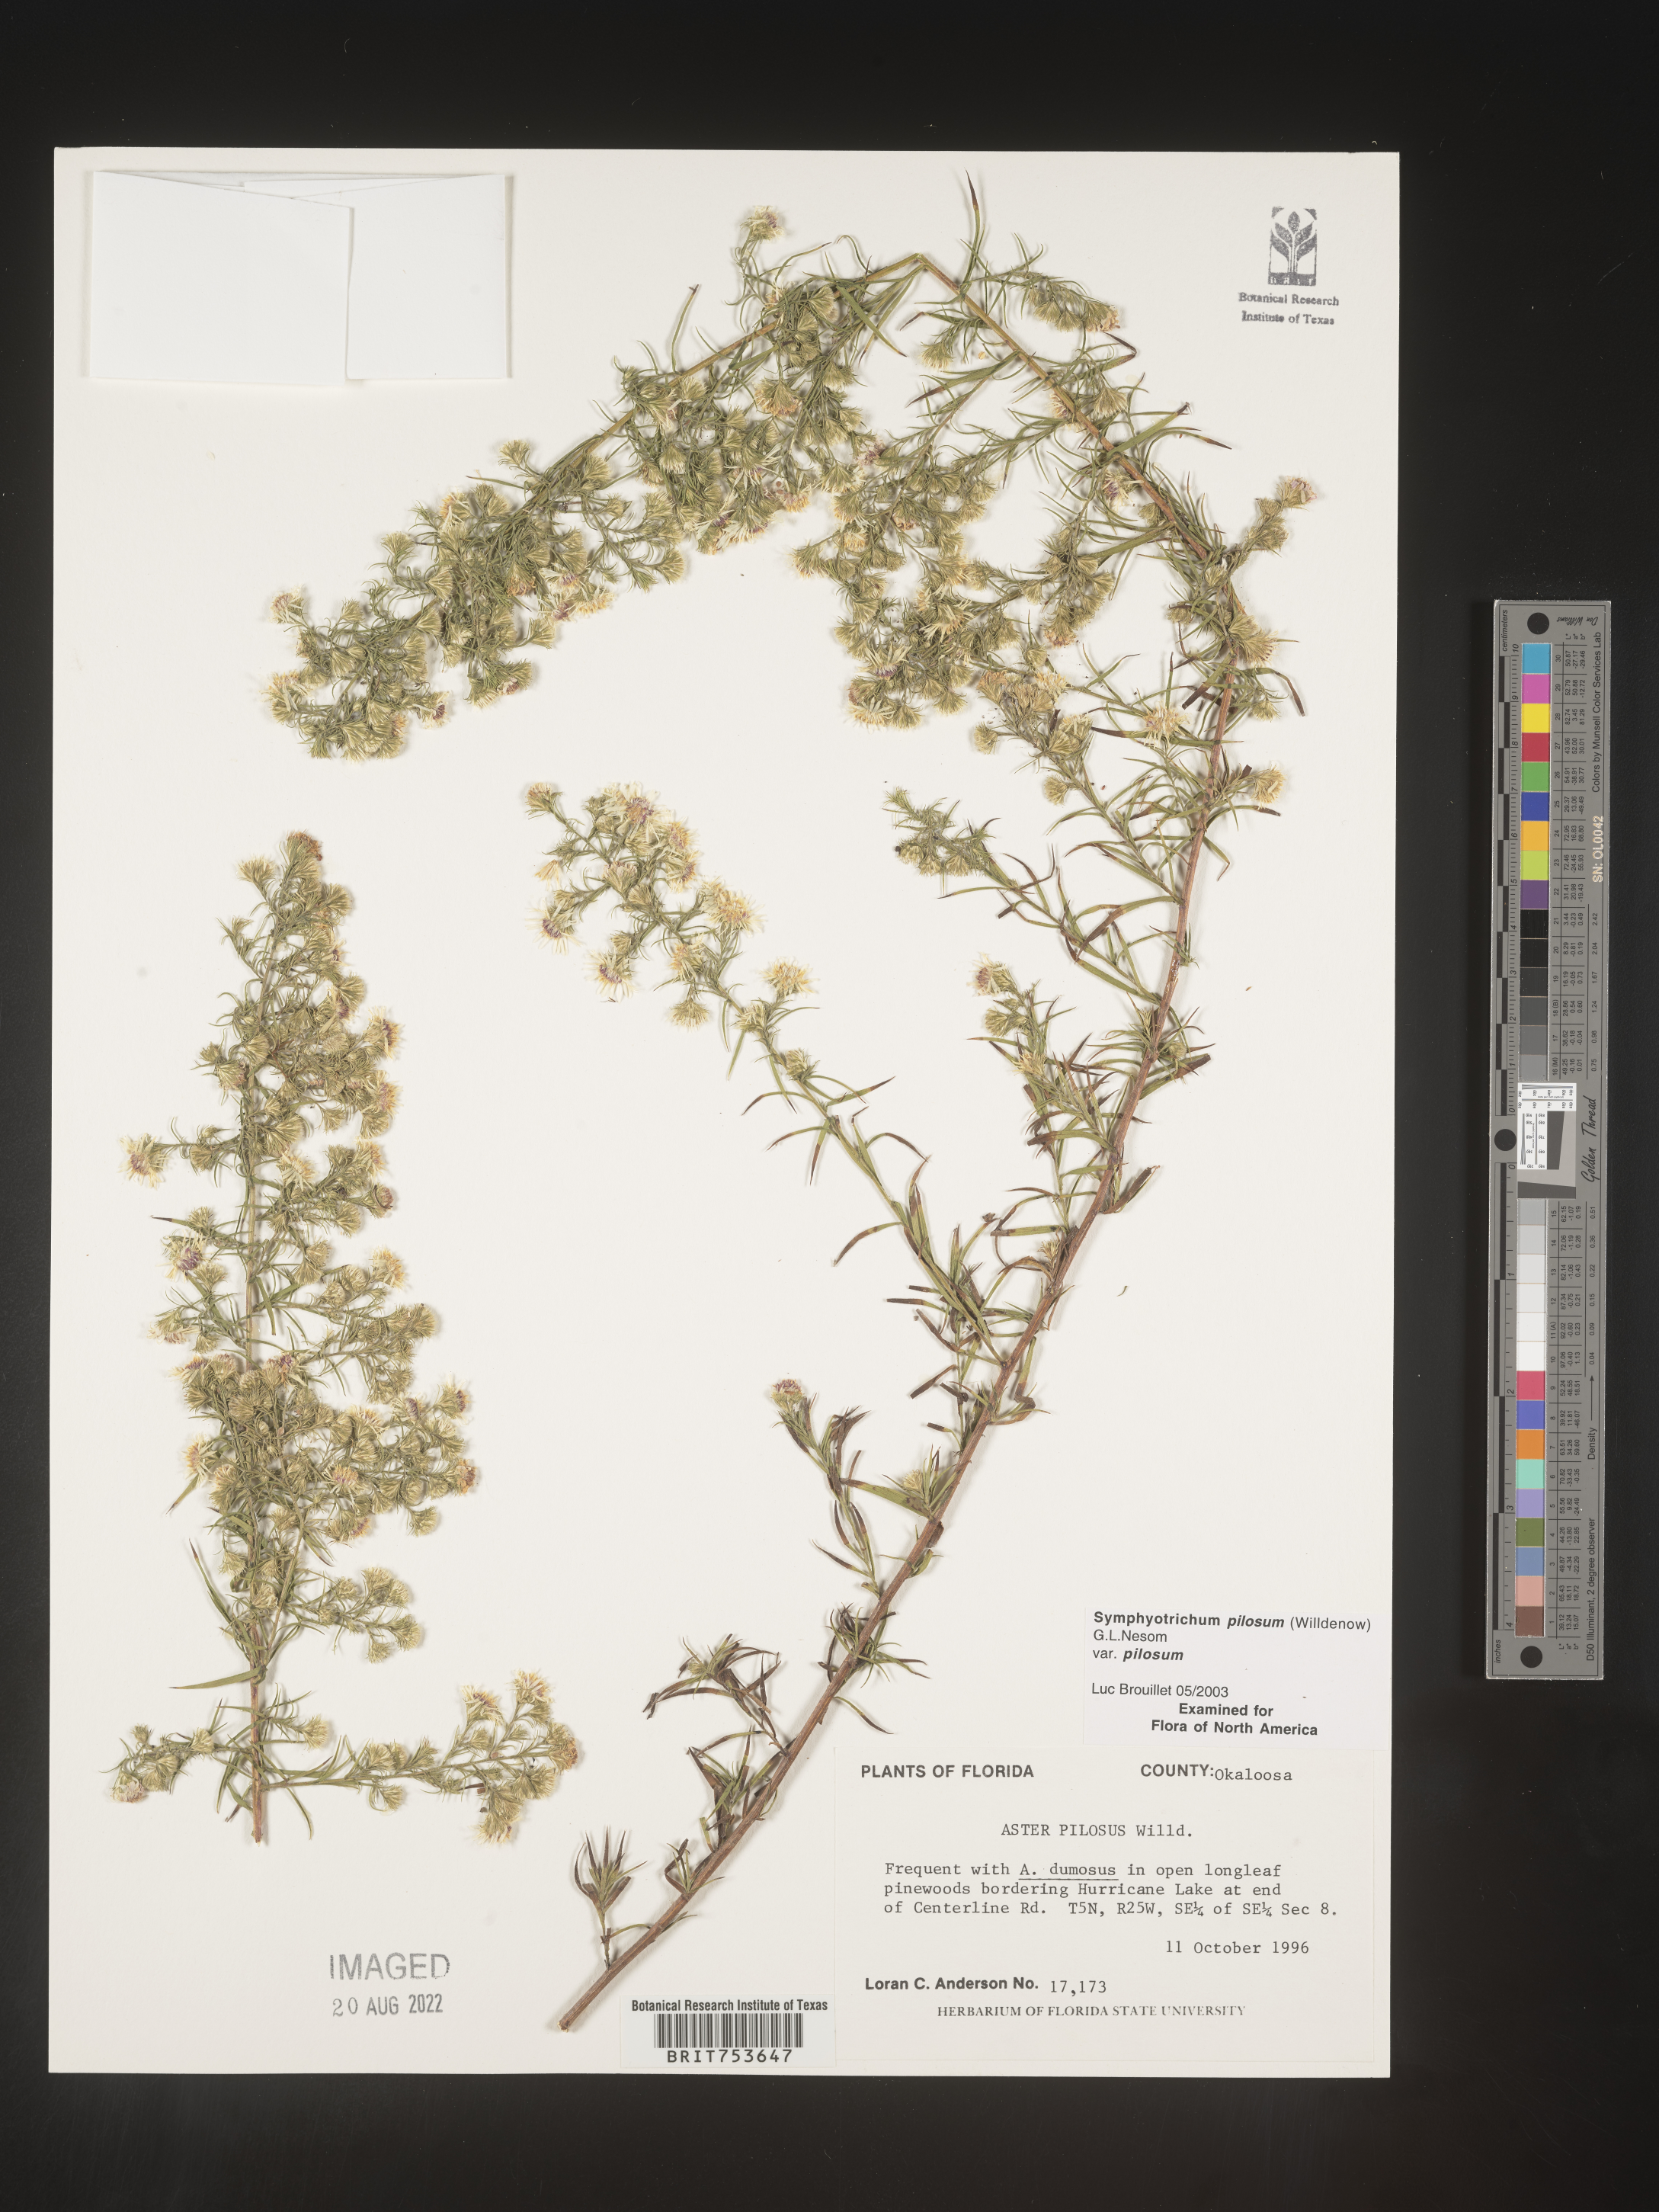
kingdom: Plantae
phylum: Tracheophyta
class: Magnoliopsida
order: Asterales
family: Asteraceae
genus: Symphyotrichum
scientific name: Symphyotrichum pilosum
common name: Awl aster
